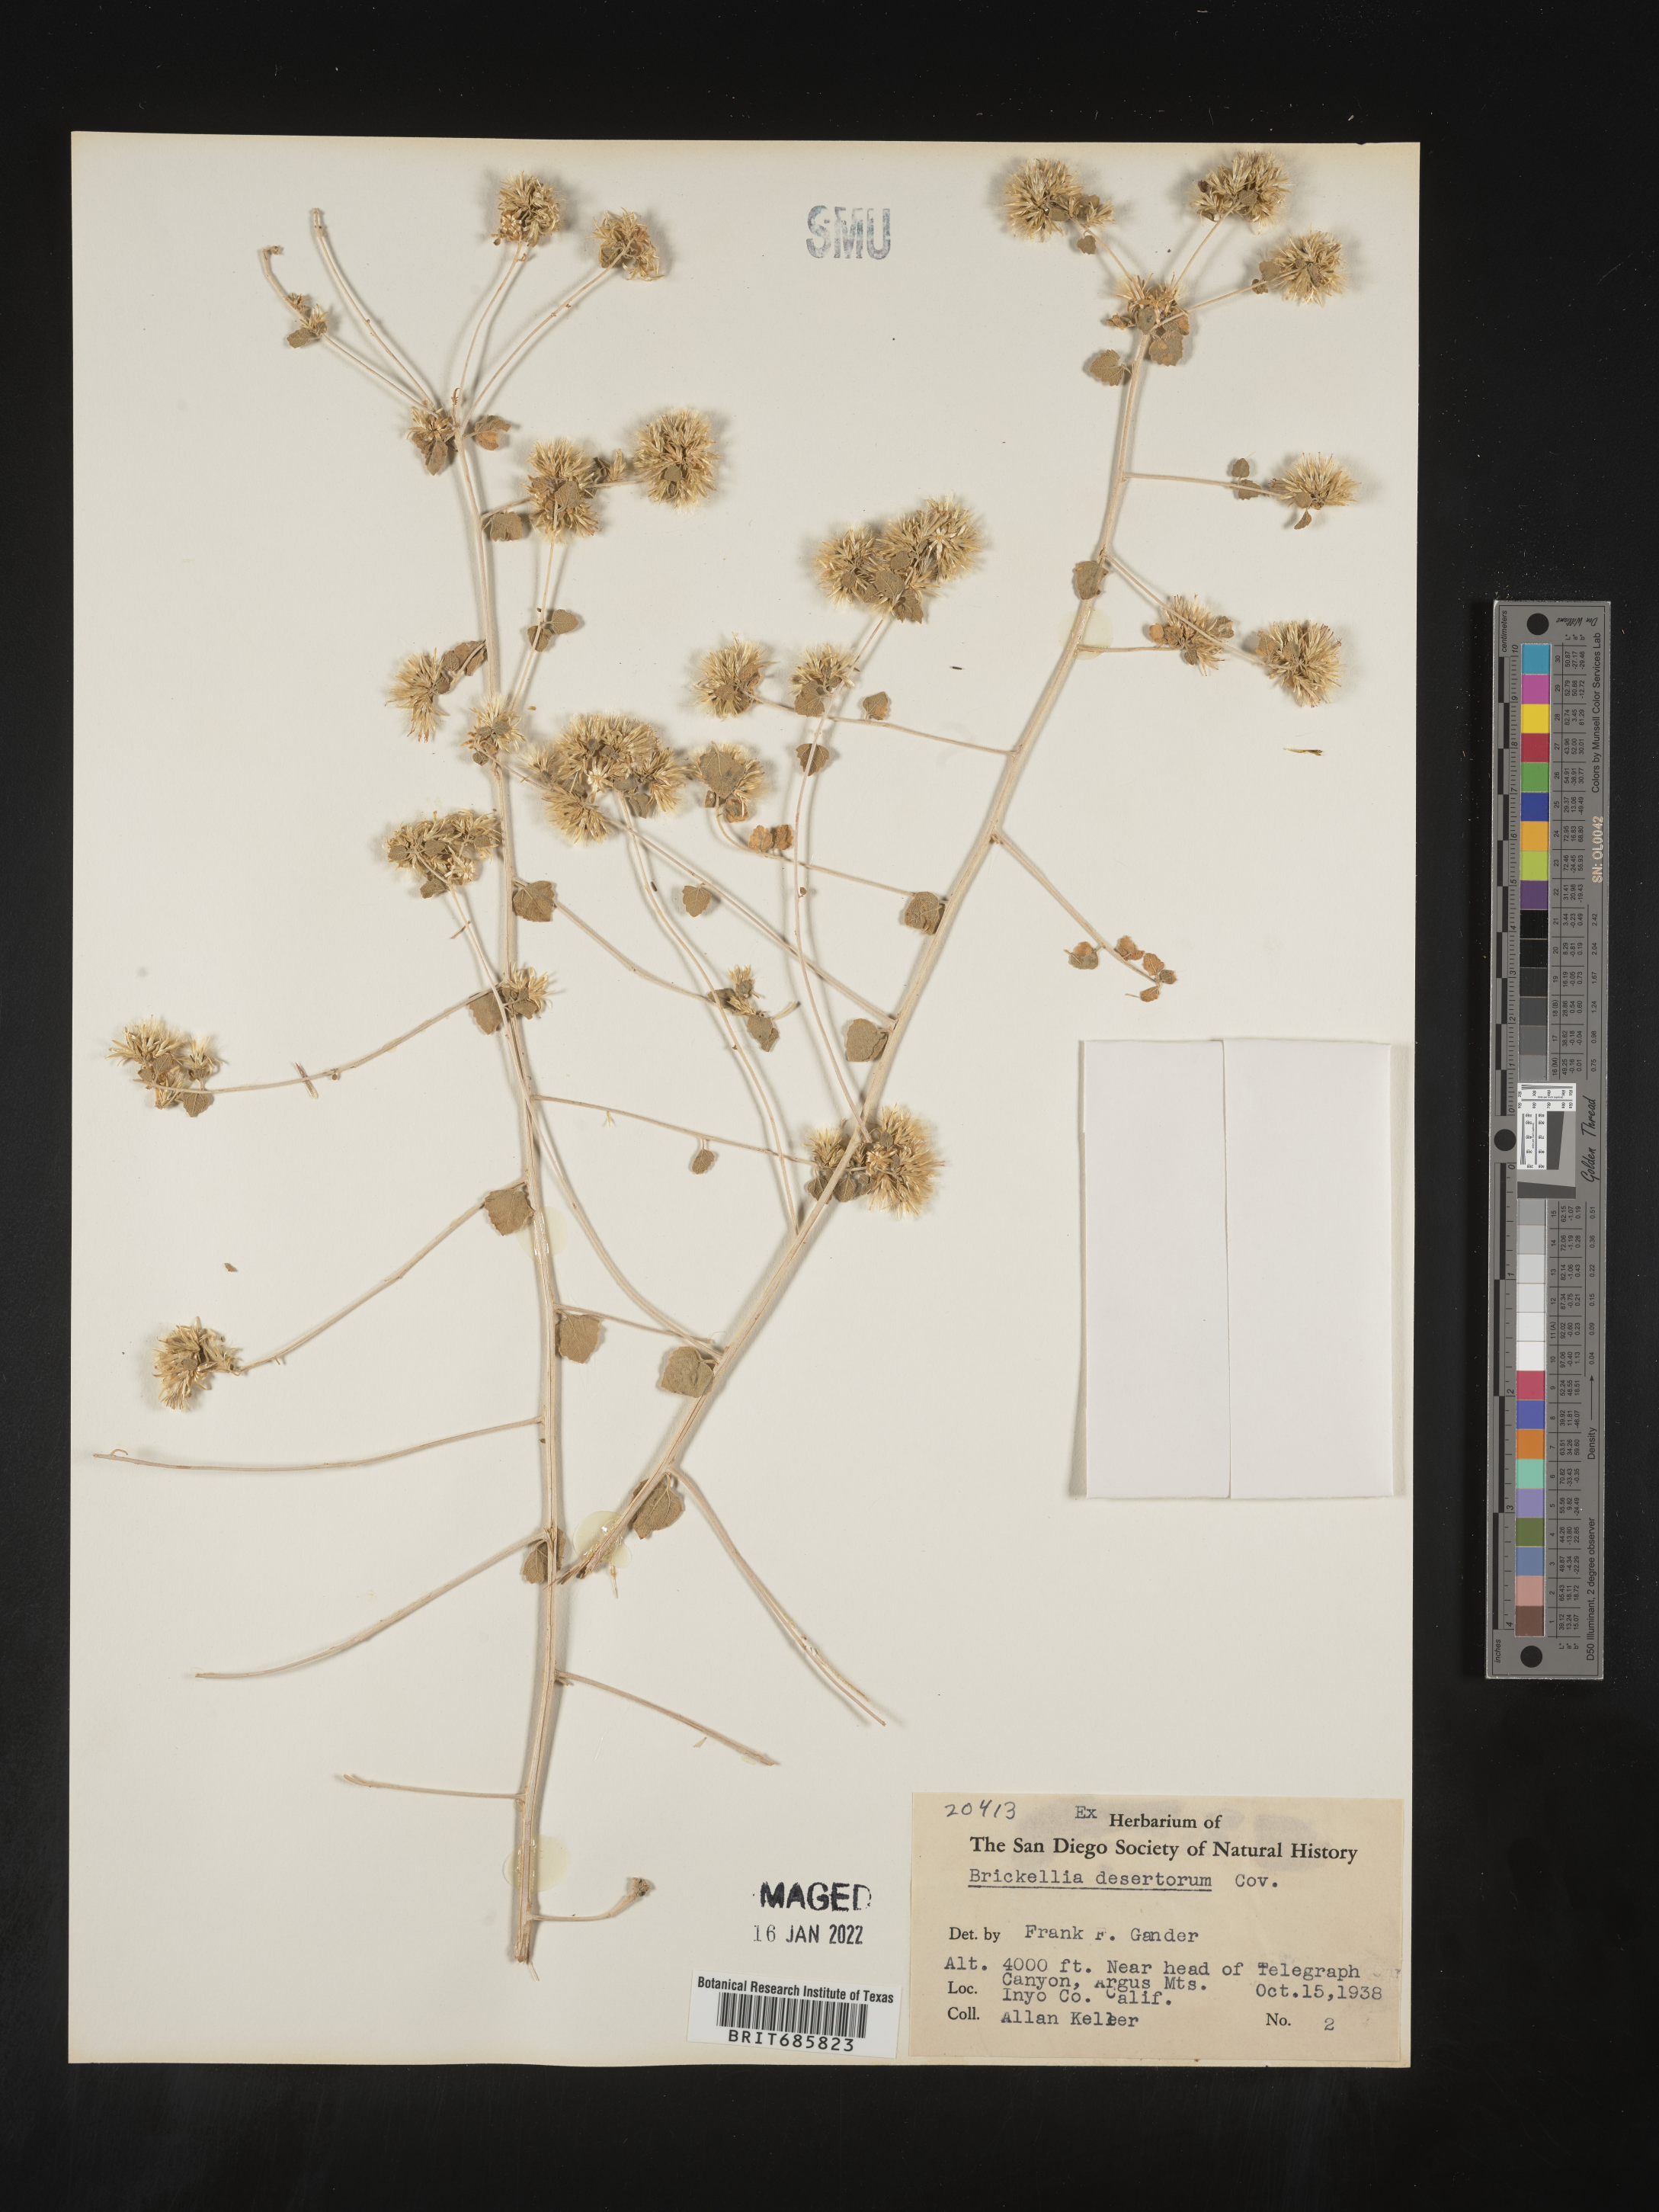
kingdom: Plantae
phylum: Tracheophyta
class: Magnoliopsida
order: Asterales
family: Asteraceae
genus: Brickellia
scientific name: Brickellia desertorum
